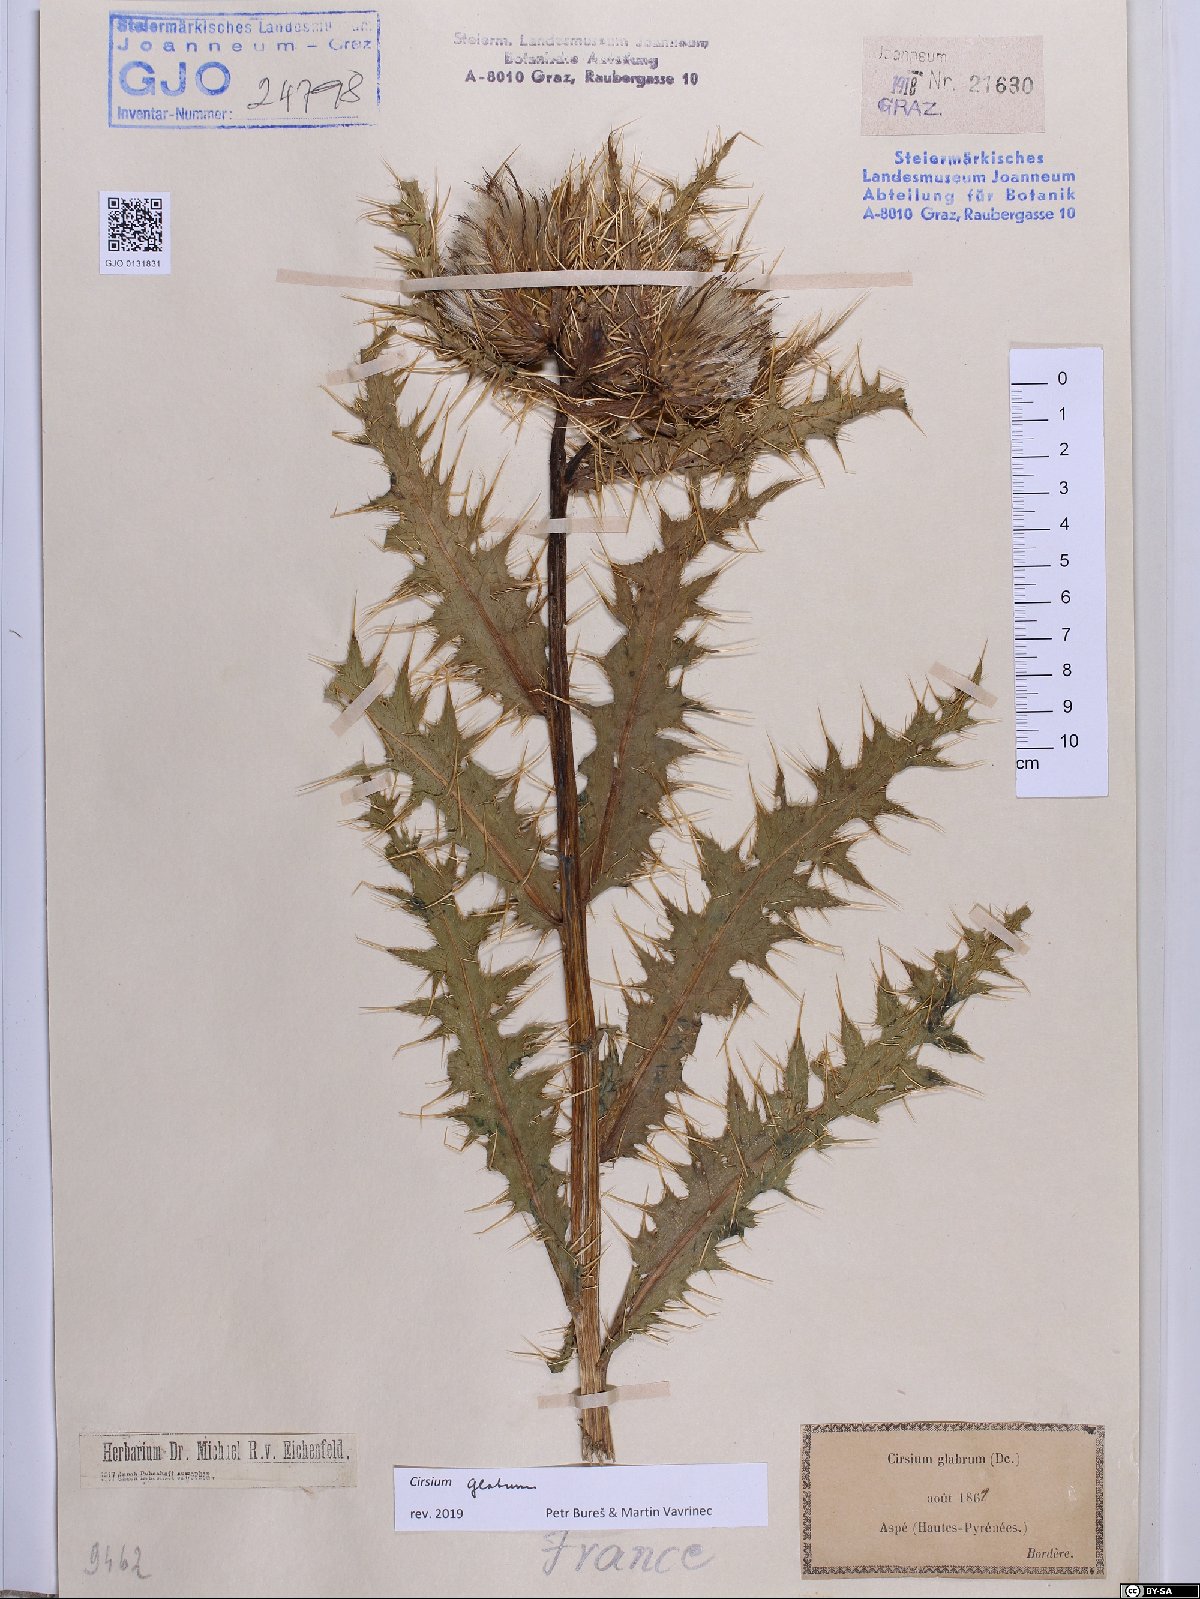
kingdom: Plantae
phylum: Tracheophyta
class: Magnoliopsida
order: Asterales
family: Asteraceae
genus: Cirsium
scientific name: Cirsium glabrum
